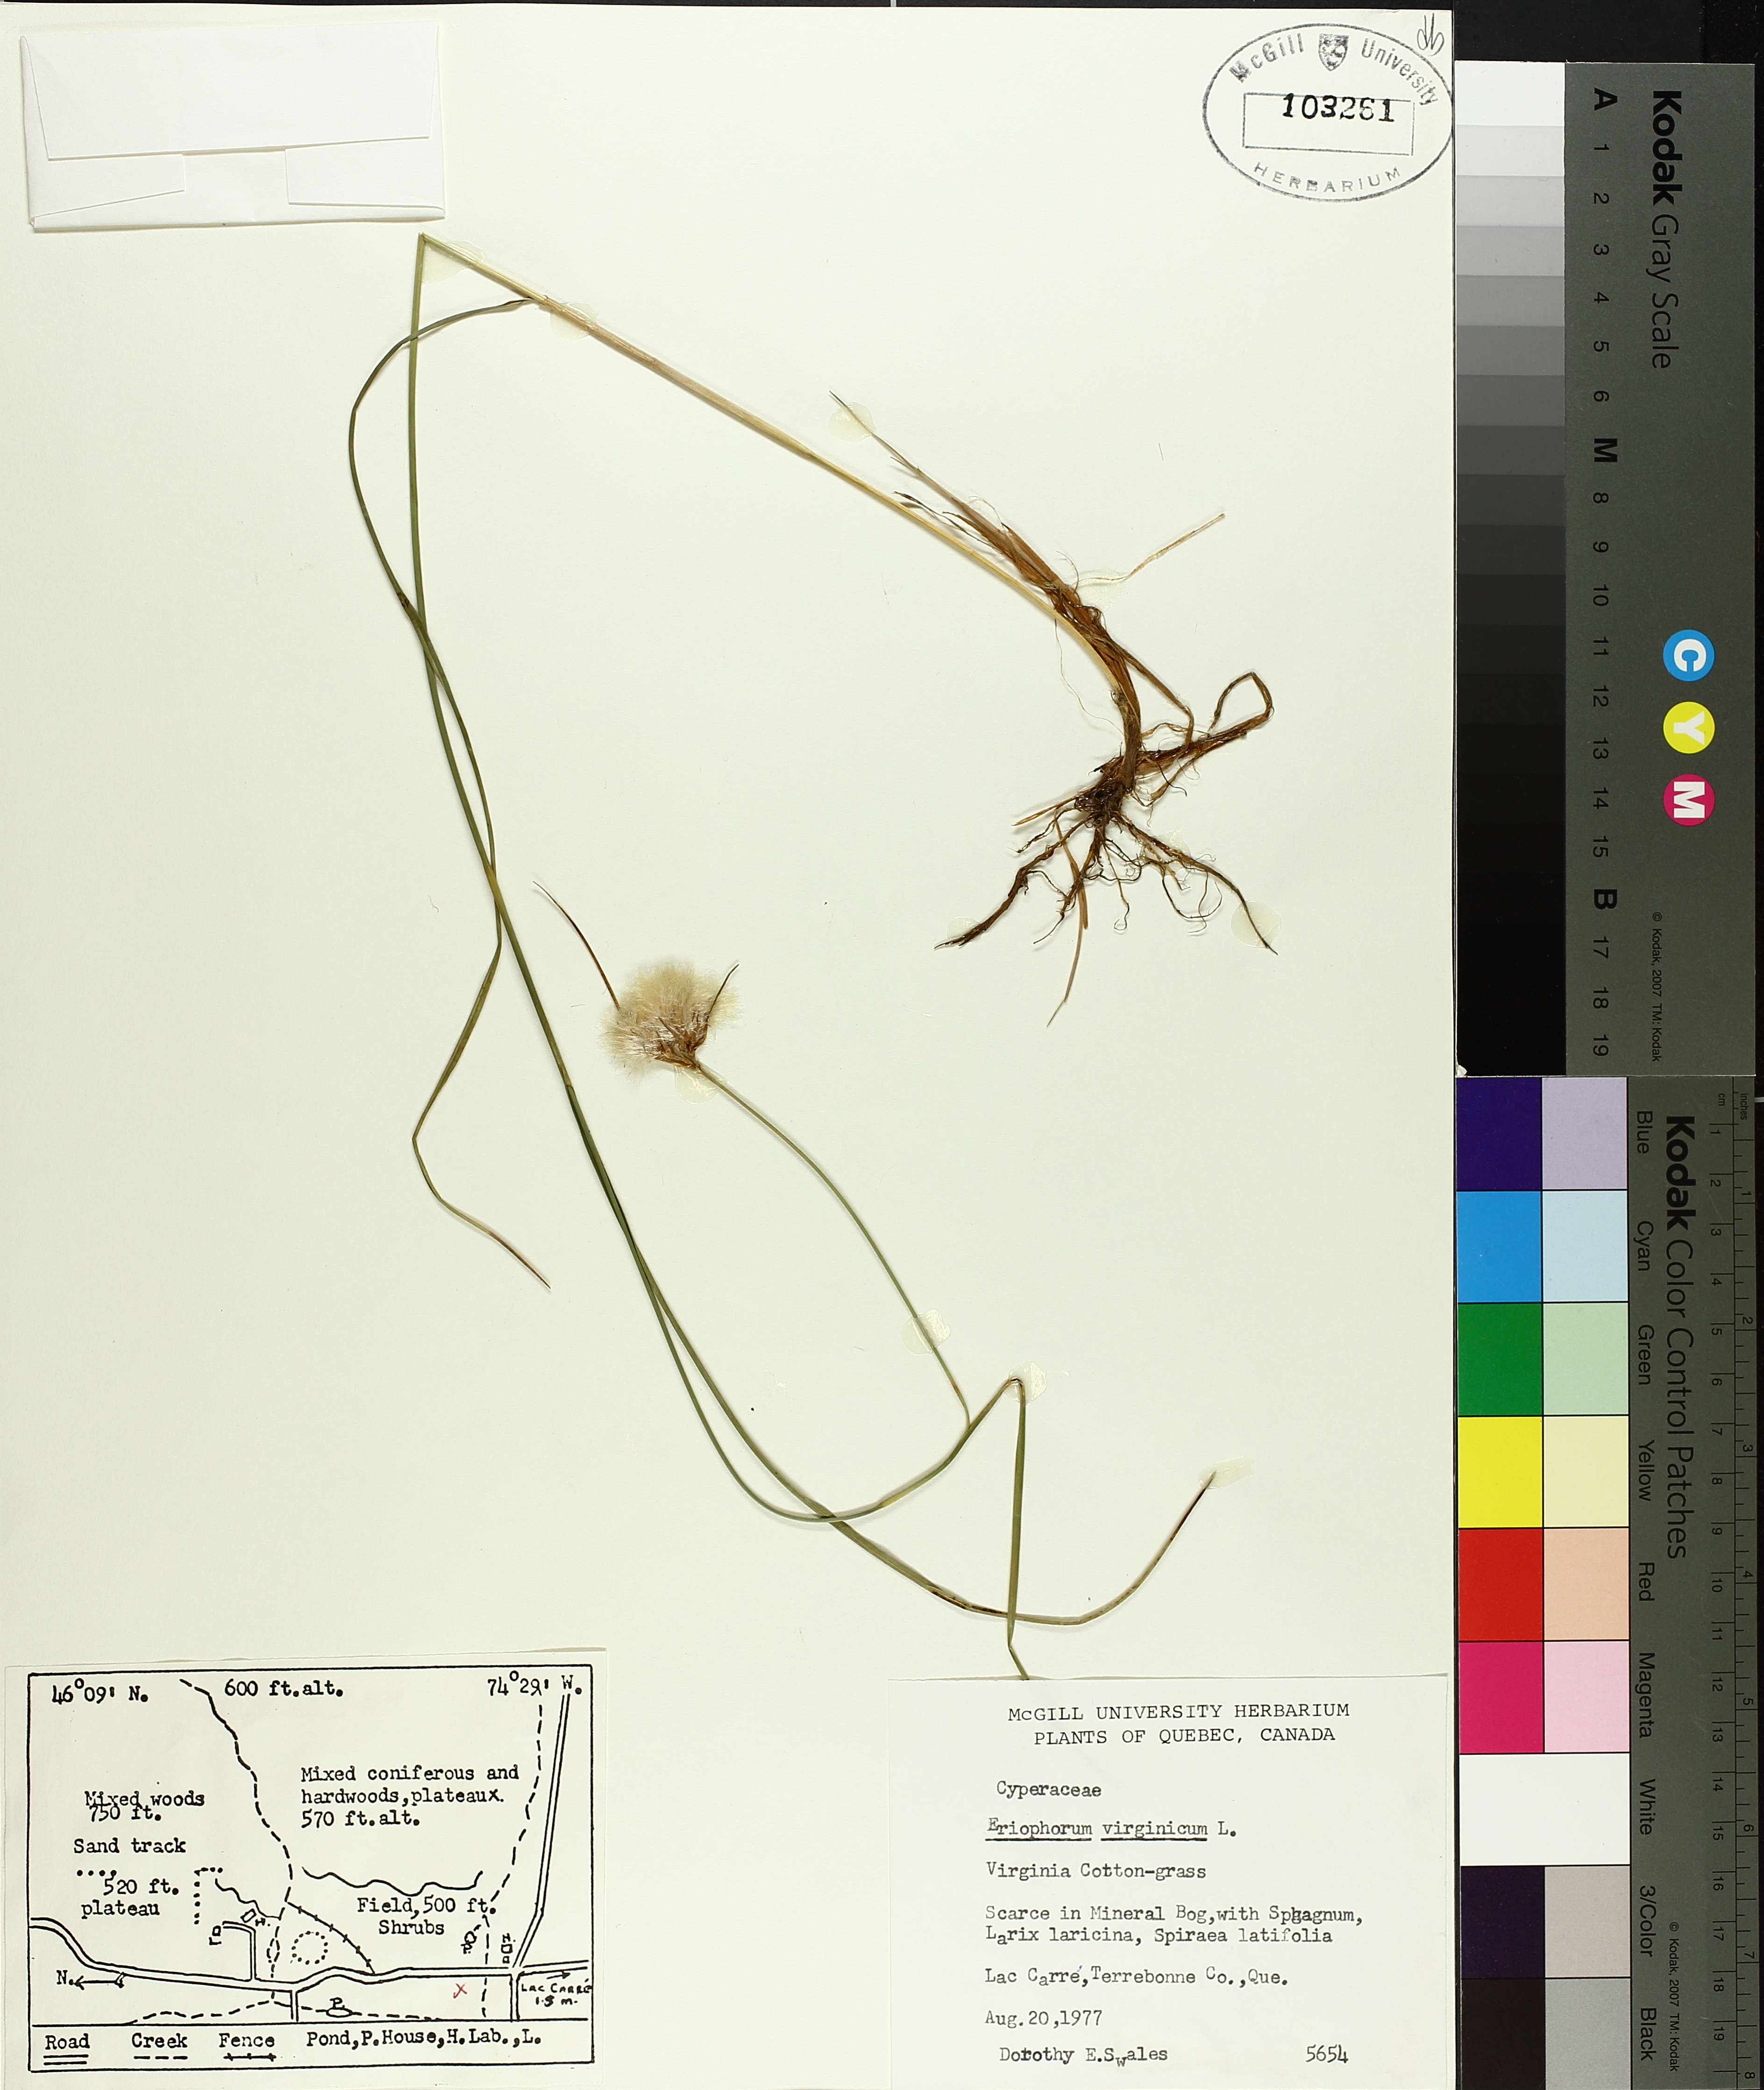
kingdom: Plantae
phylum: Tracheophyta
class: Liliopsida
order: Poales
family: Cyperaceae
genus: Eriophorum
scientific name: Eriophorum virginicum
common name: Tawny cottongrass
